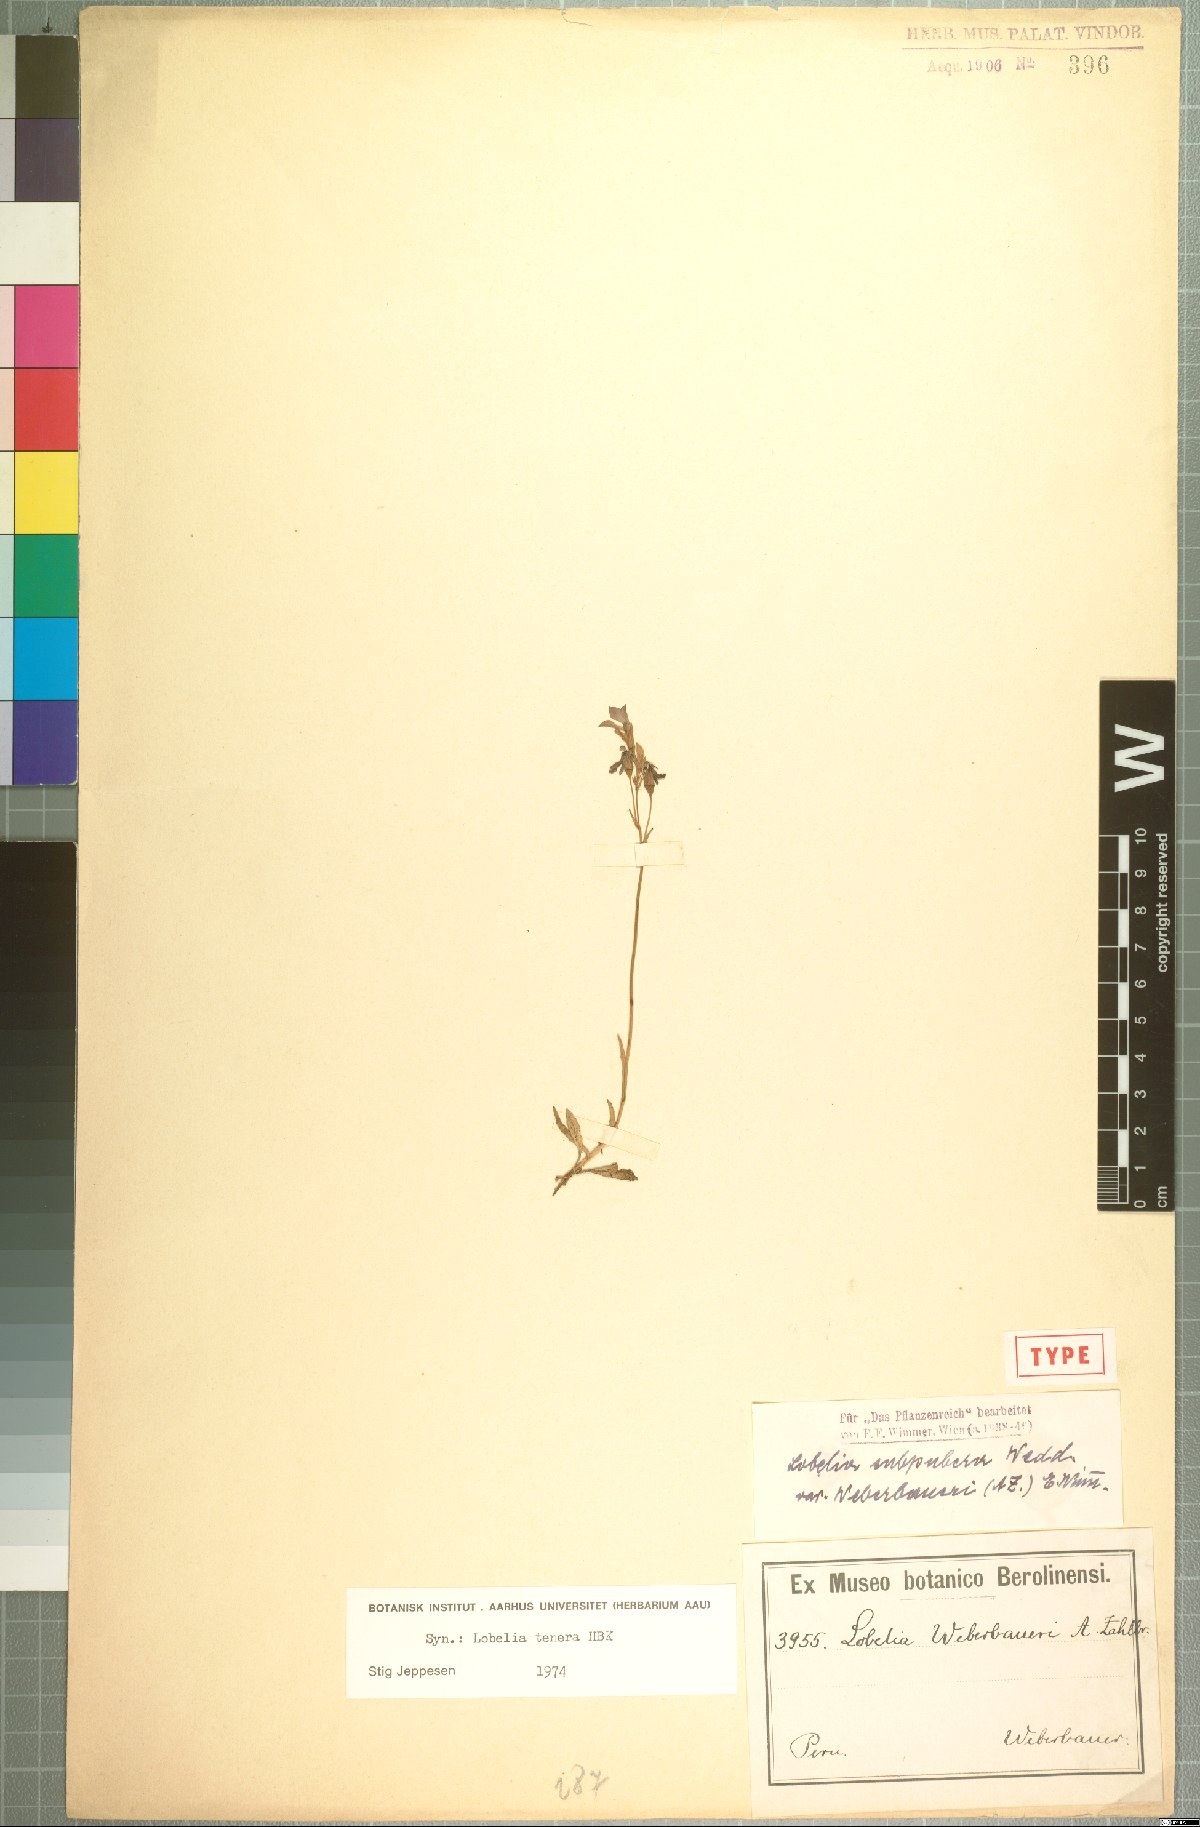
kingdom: Plantae
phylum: Tracheophyta
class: Magnoliopsida
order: Asterales
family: Campanulaceae
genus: Lobelia
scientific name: Lobelia tenera
